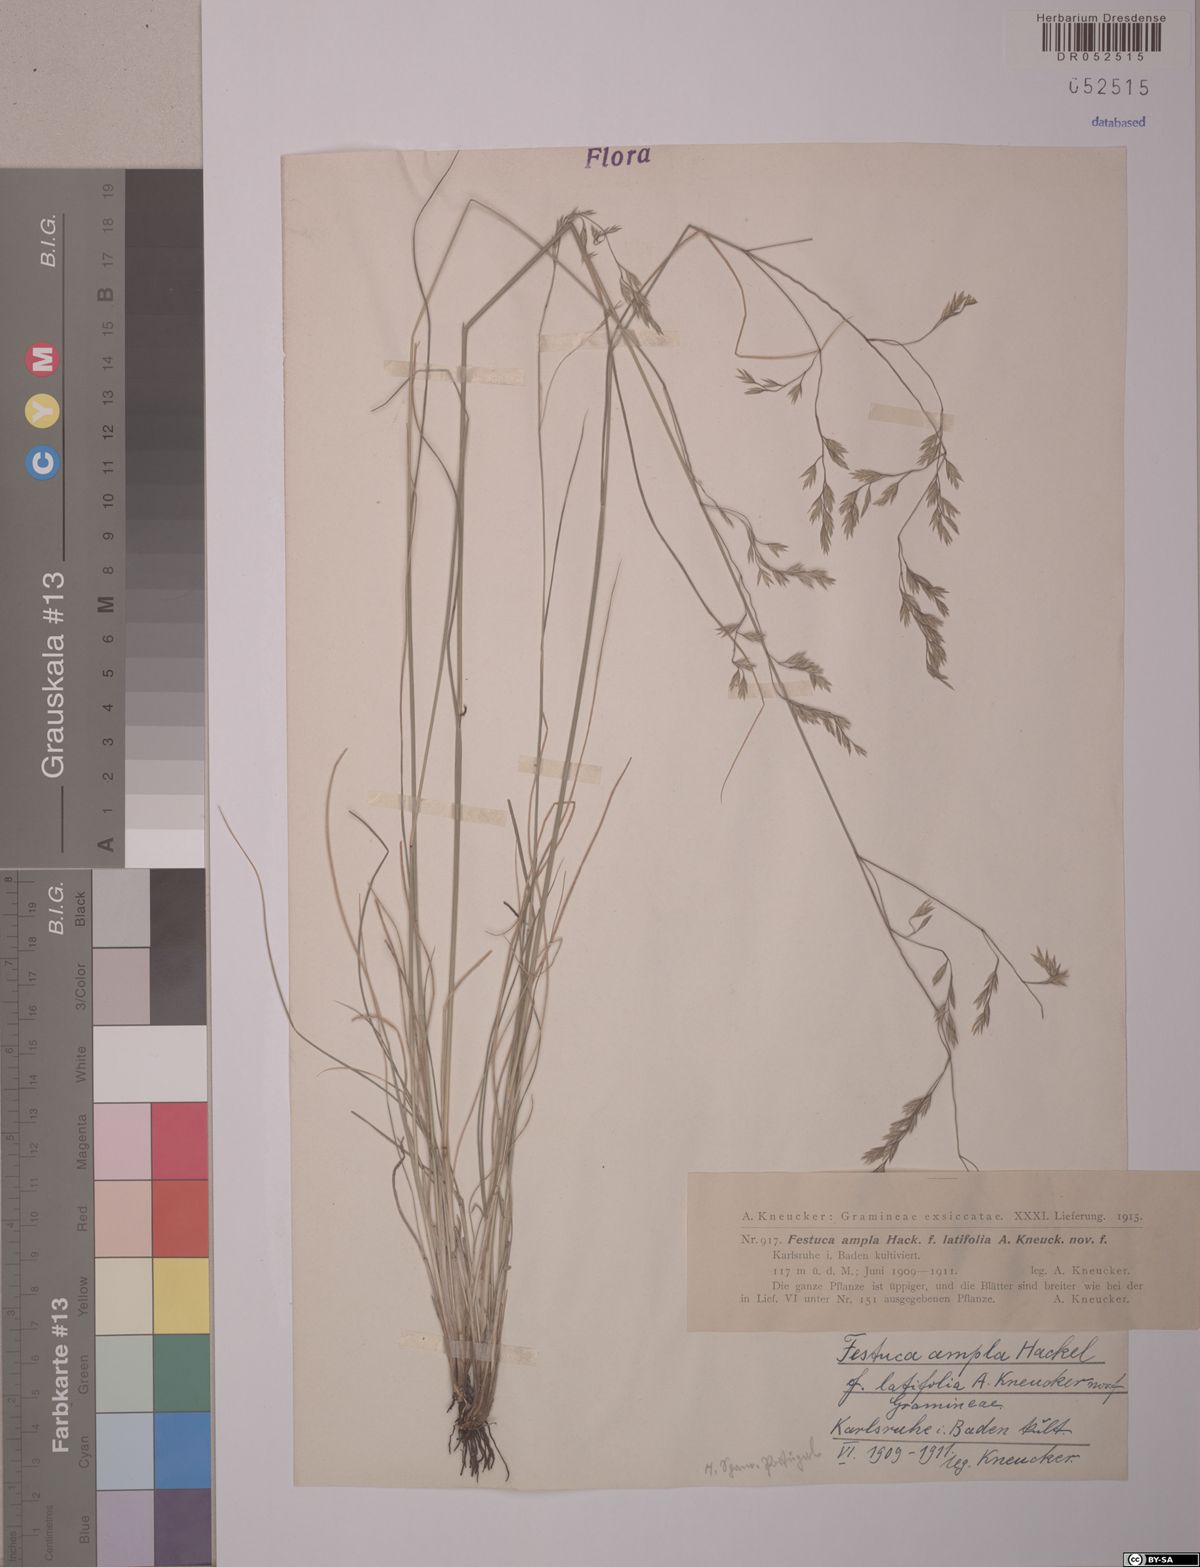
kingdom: Plantae
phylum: Tracheophyta
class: Liliopsida
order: Poales
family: Poaceae
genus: Festuca
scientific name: Festuca ampla
